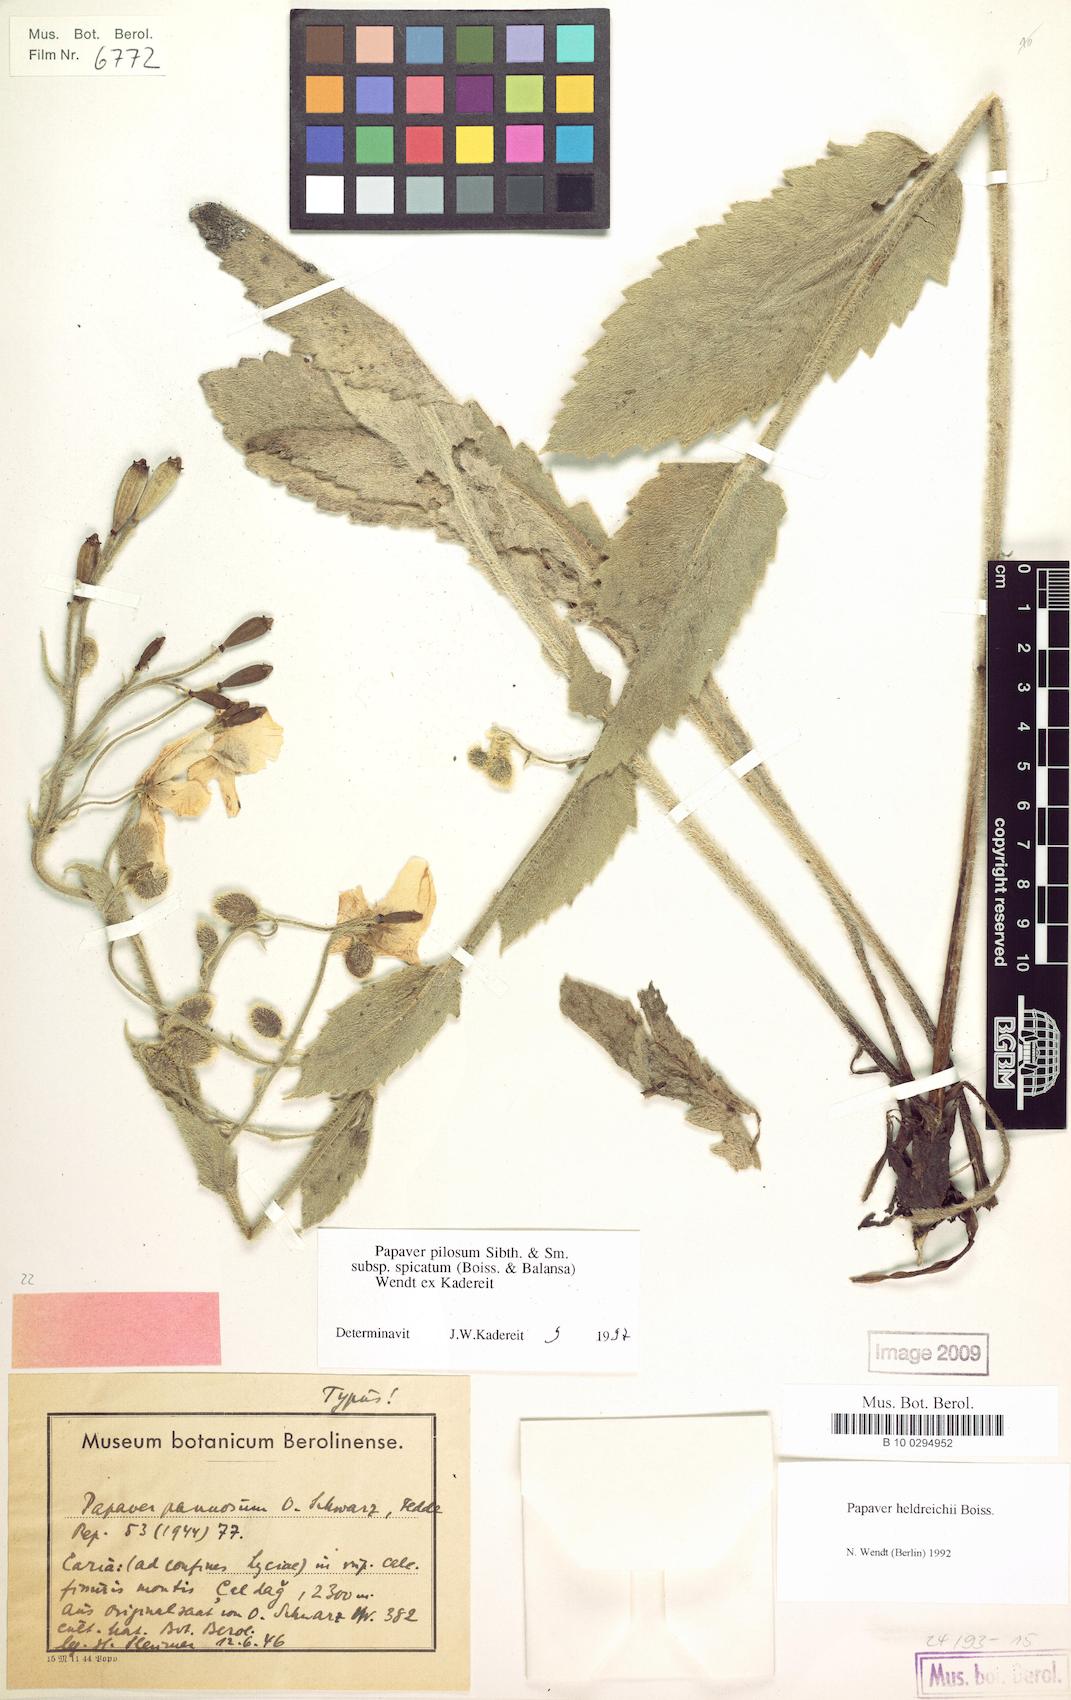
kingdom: Plantae
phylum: Tracheophyta
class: Magnoliopsida
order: Ranunculales
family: Papaveraceae
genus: Papaver
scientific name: Papaver pilosum
